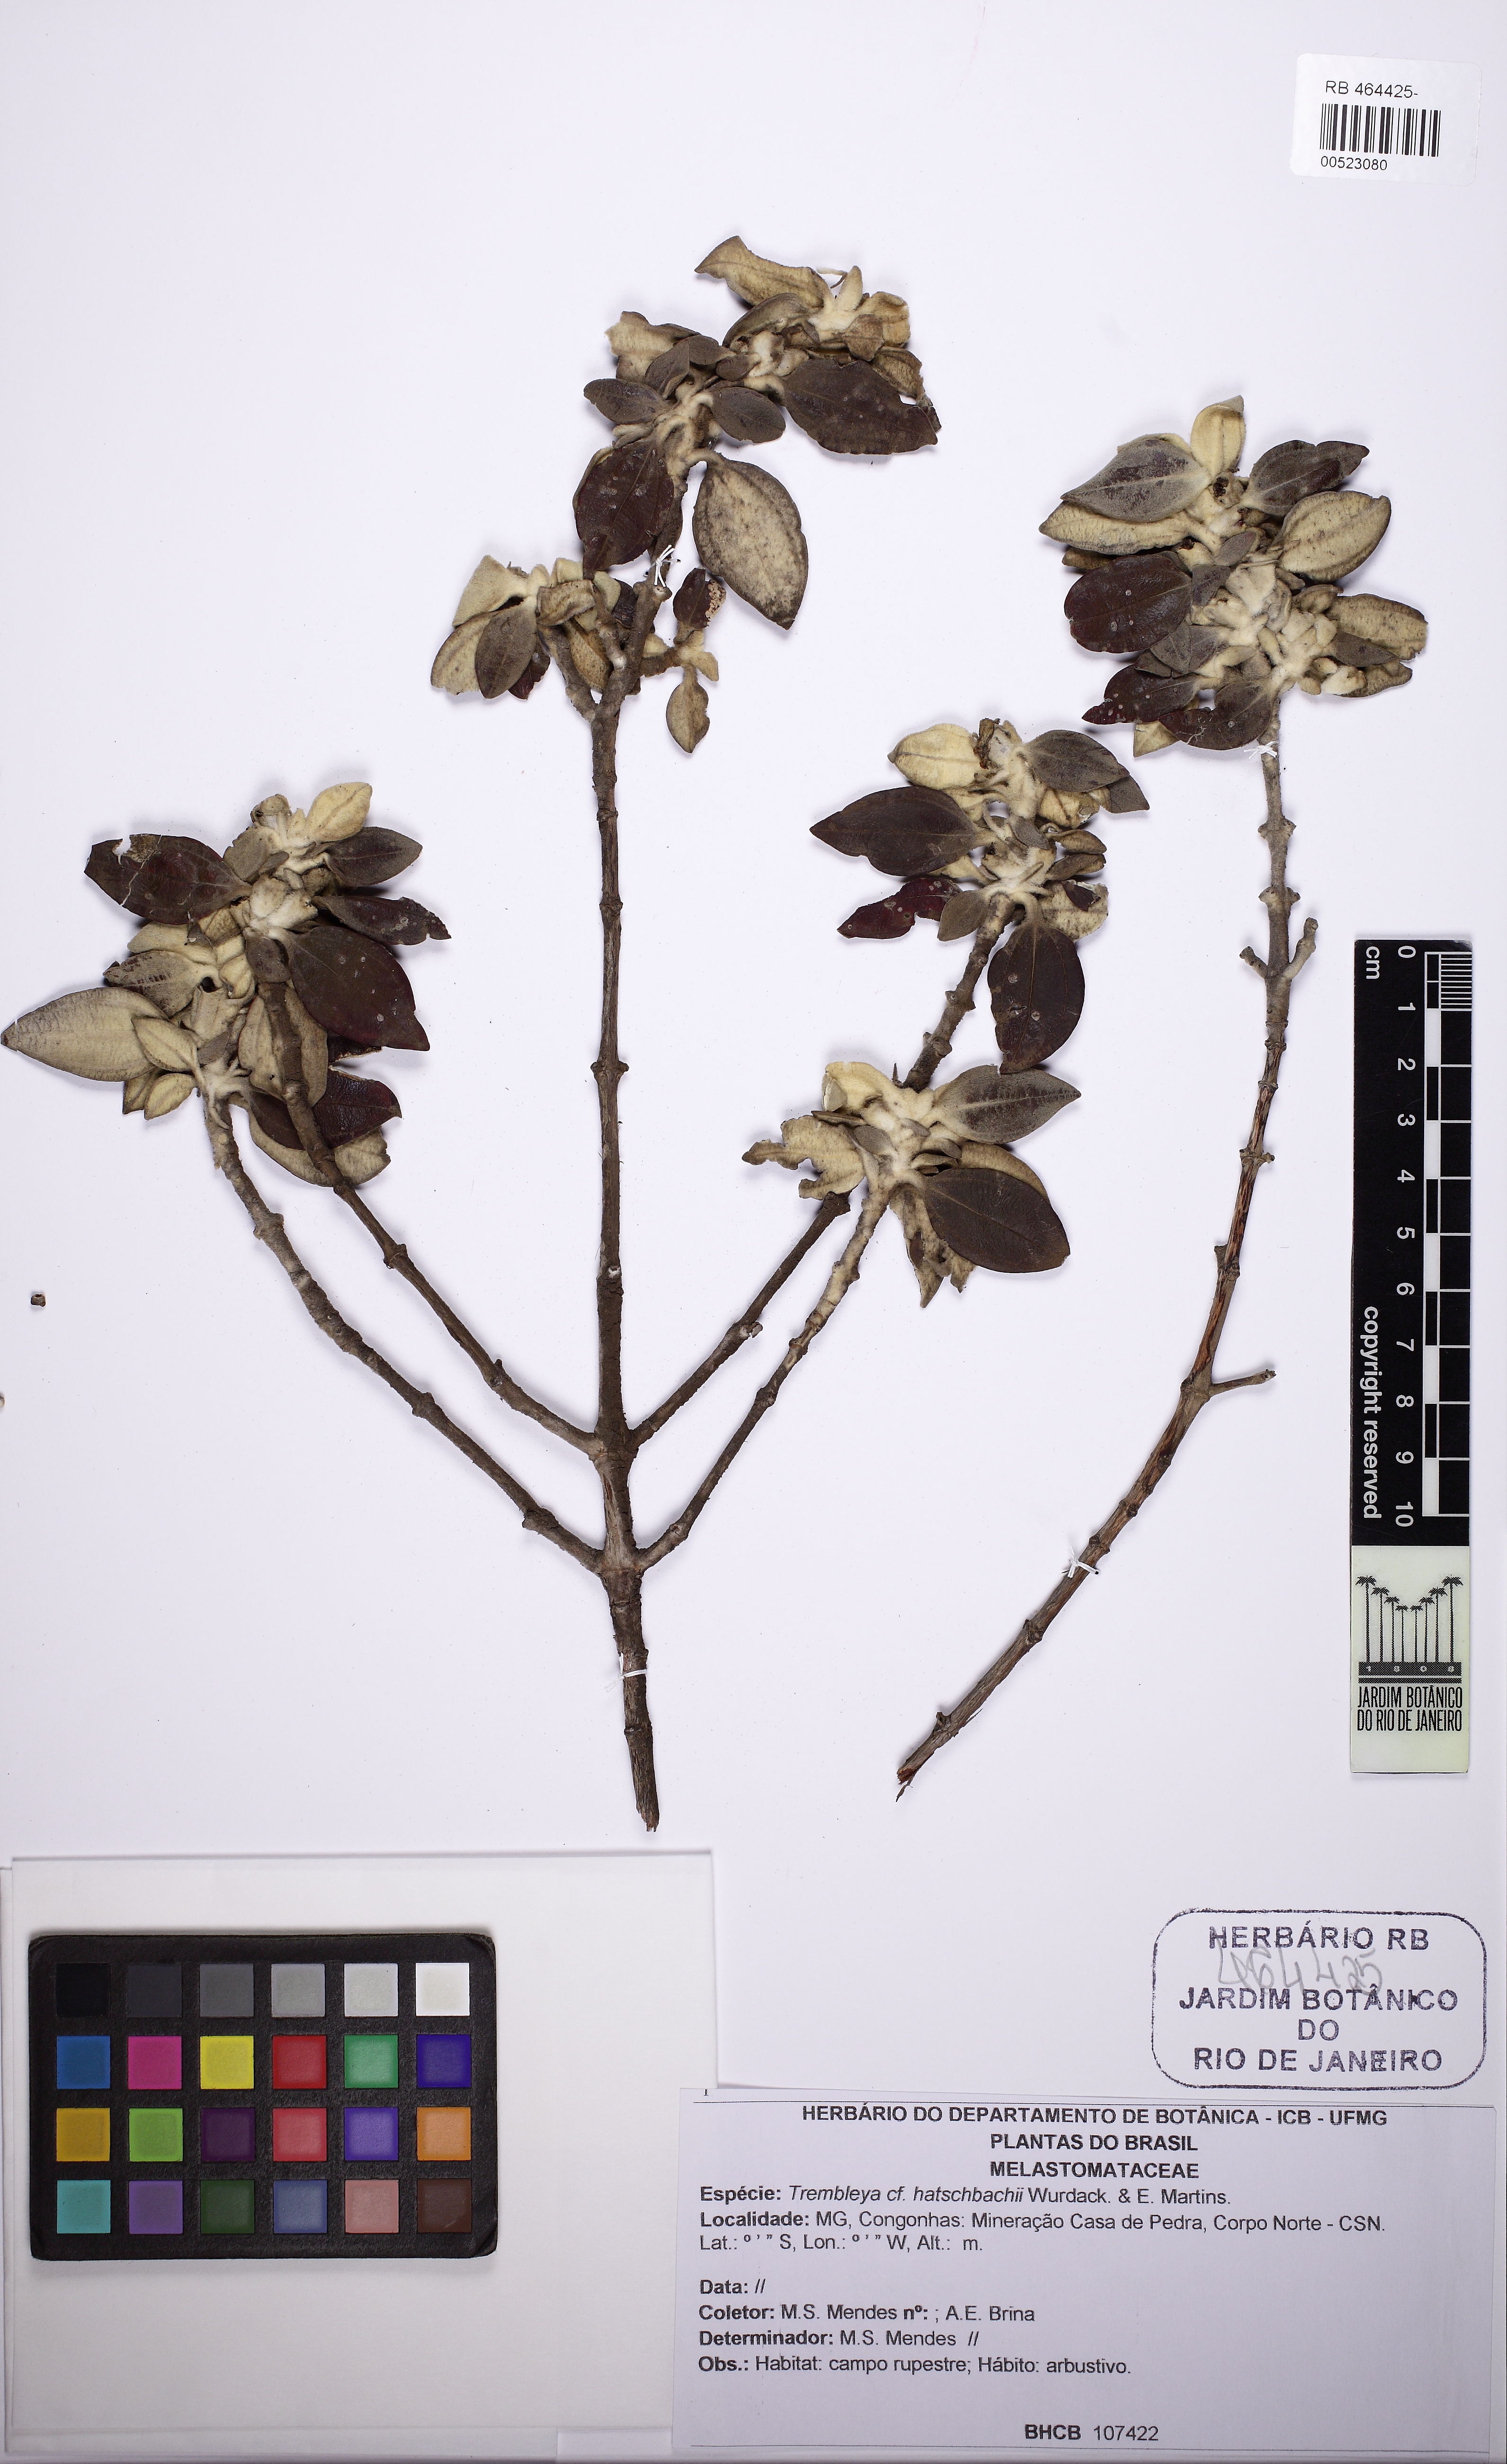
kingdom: Plantae
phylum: Tracheophyta
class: Magnoliopsida
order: Myrtales
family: Melastomataceae
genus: Microlicia
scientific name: Microlicia flaviflora
